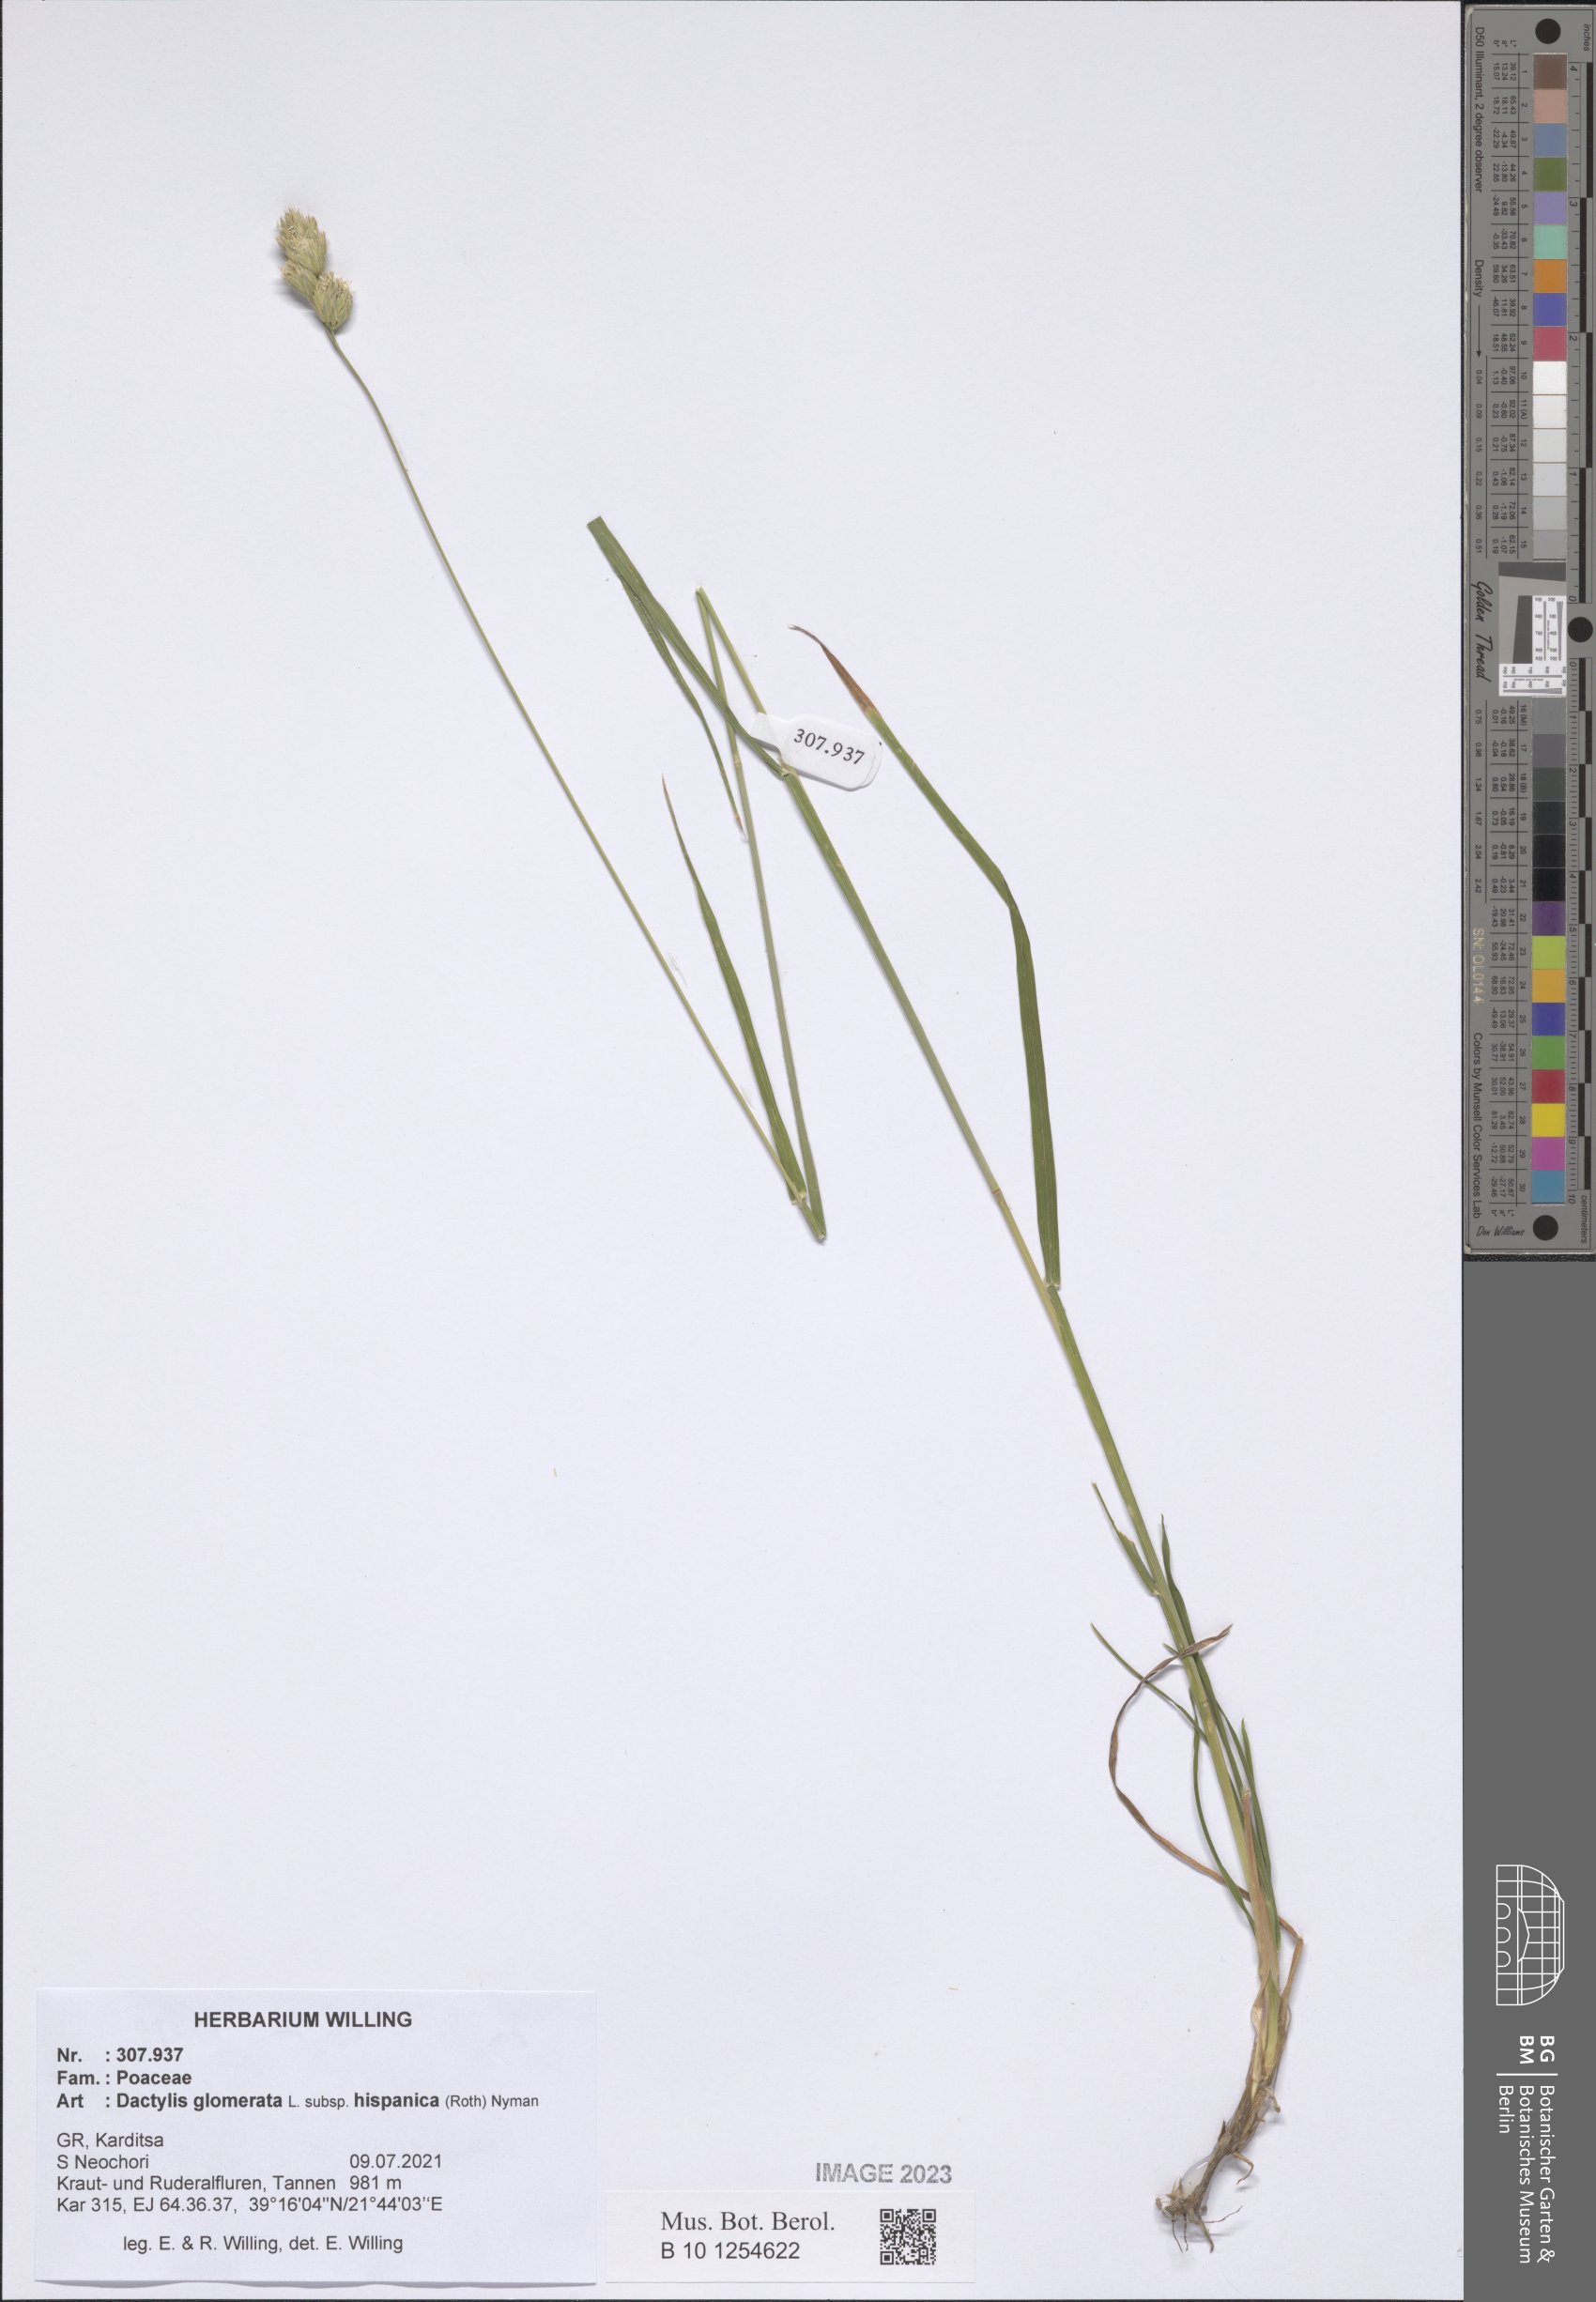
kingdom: Plantae
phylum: Tracheophyta
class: Liliopsida
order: Poales
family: Poaceae
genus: Dactylis
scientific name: Dactylis glomerata
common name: Orchardgrass
